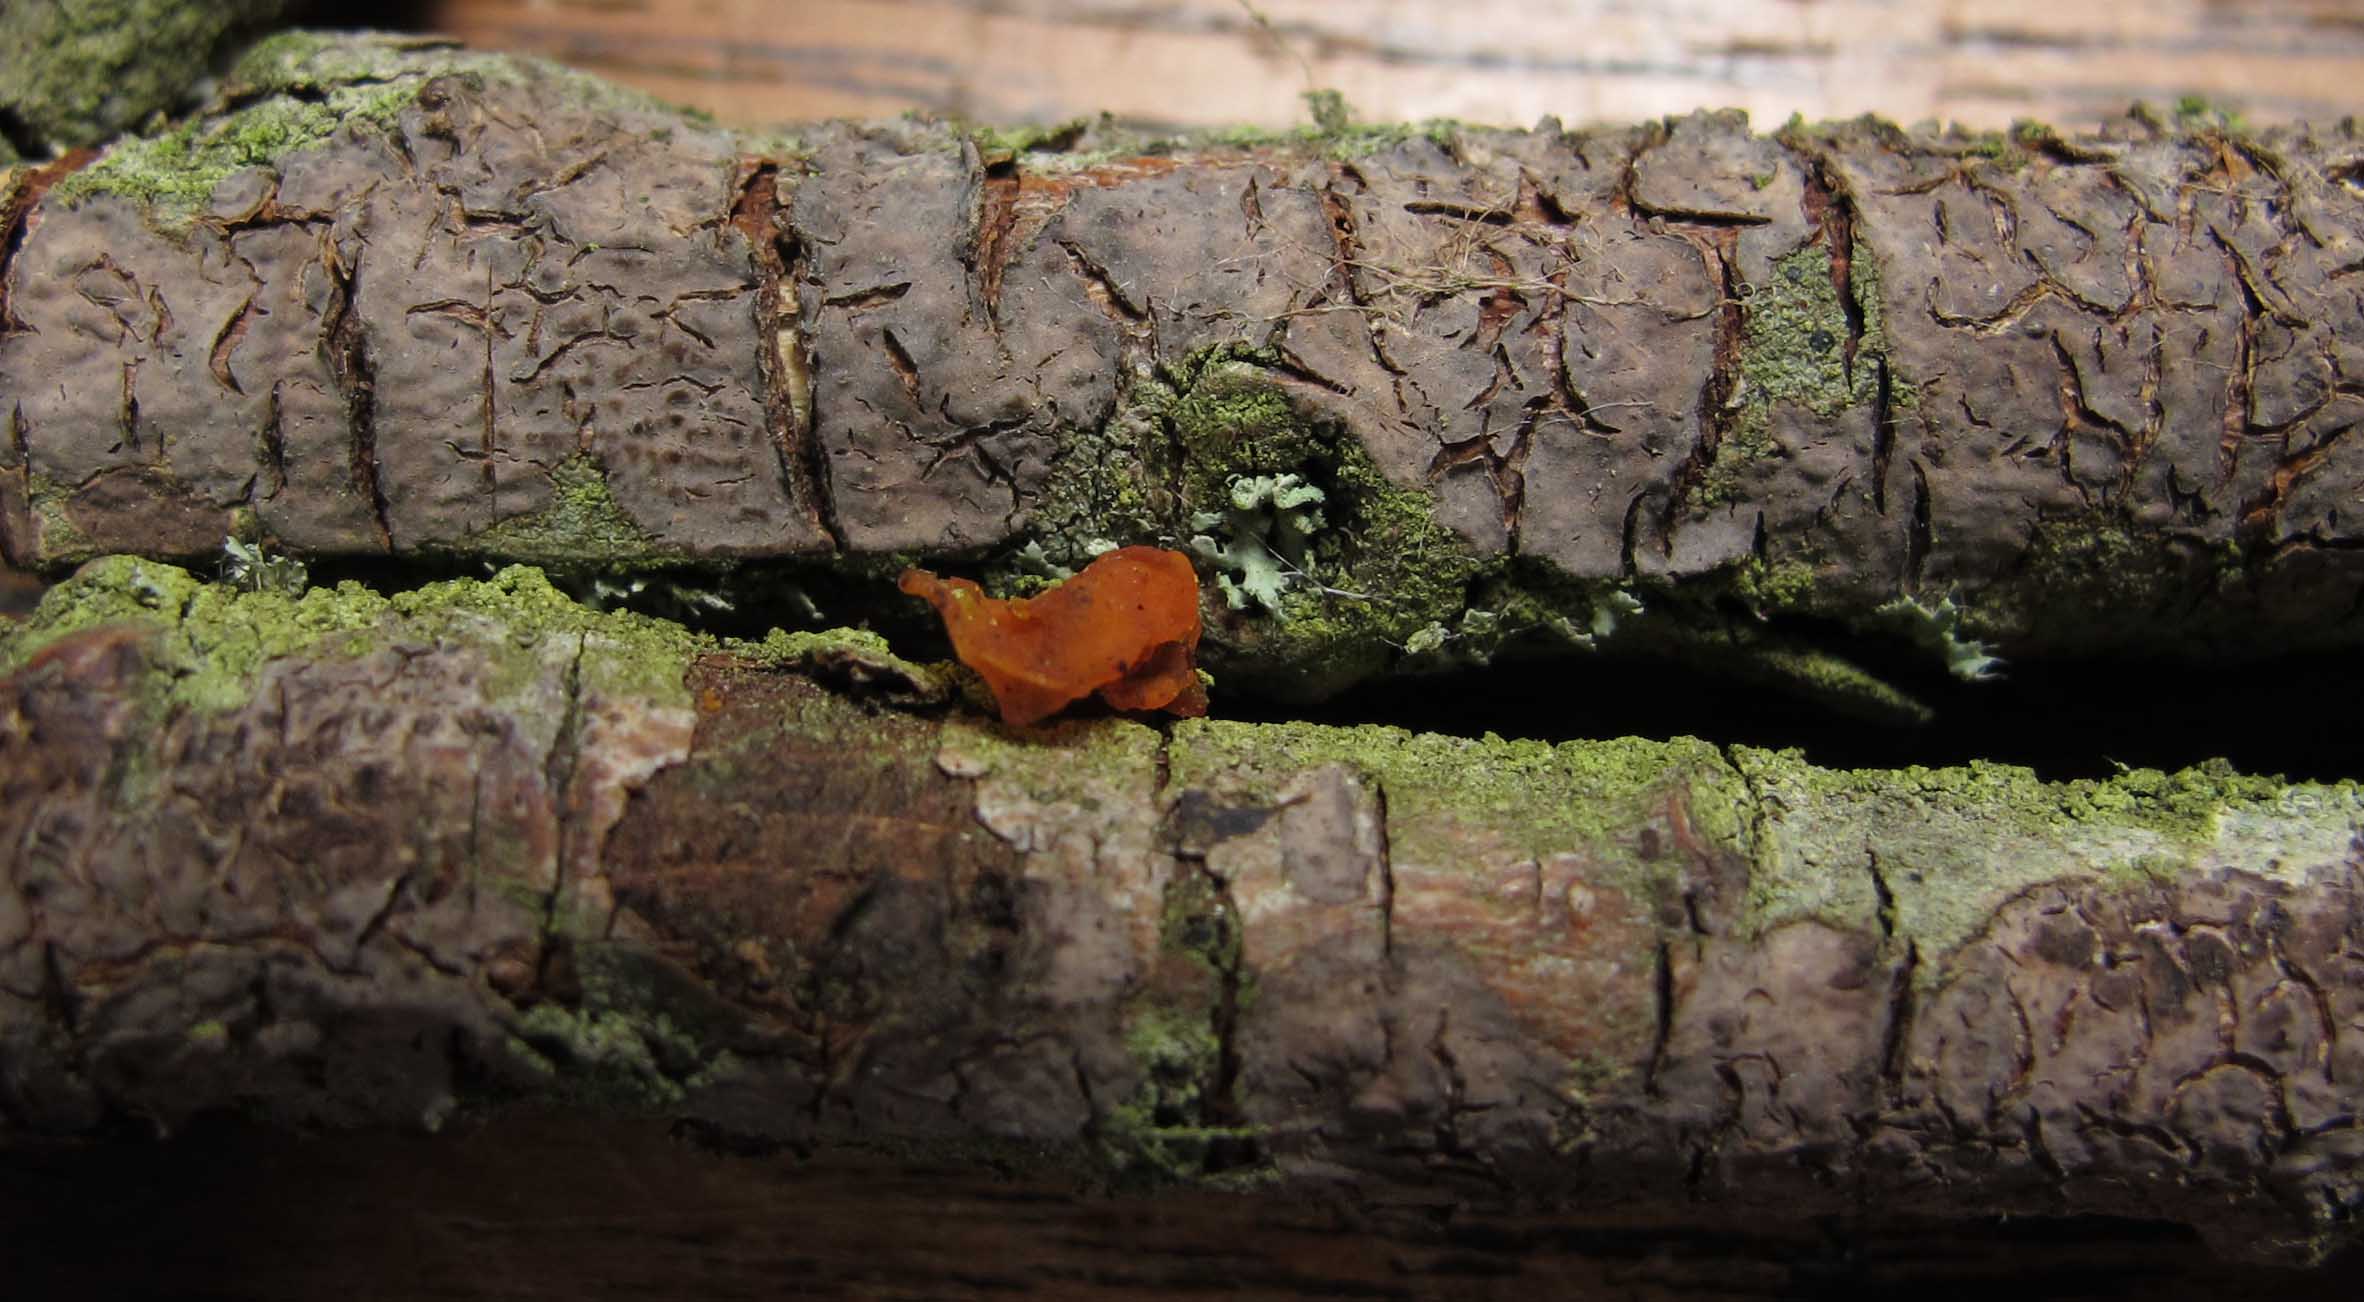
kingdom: Fungi
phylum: Basidiomycota
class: Agaricomycetes
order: Russulales
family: Peniophoraceae
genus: Peniophora
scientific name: Peniophora violaceolivida
